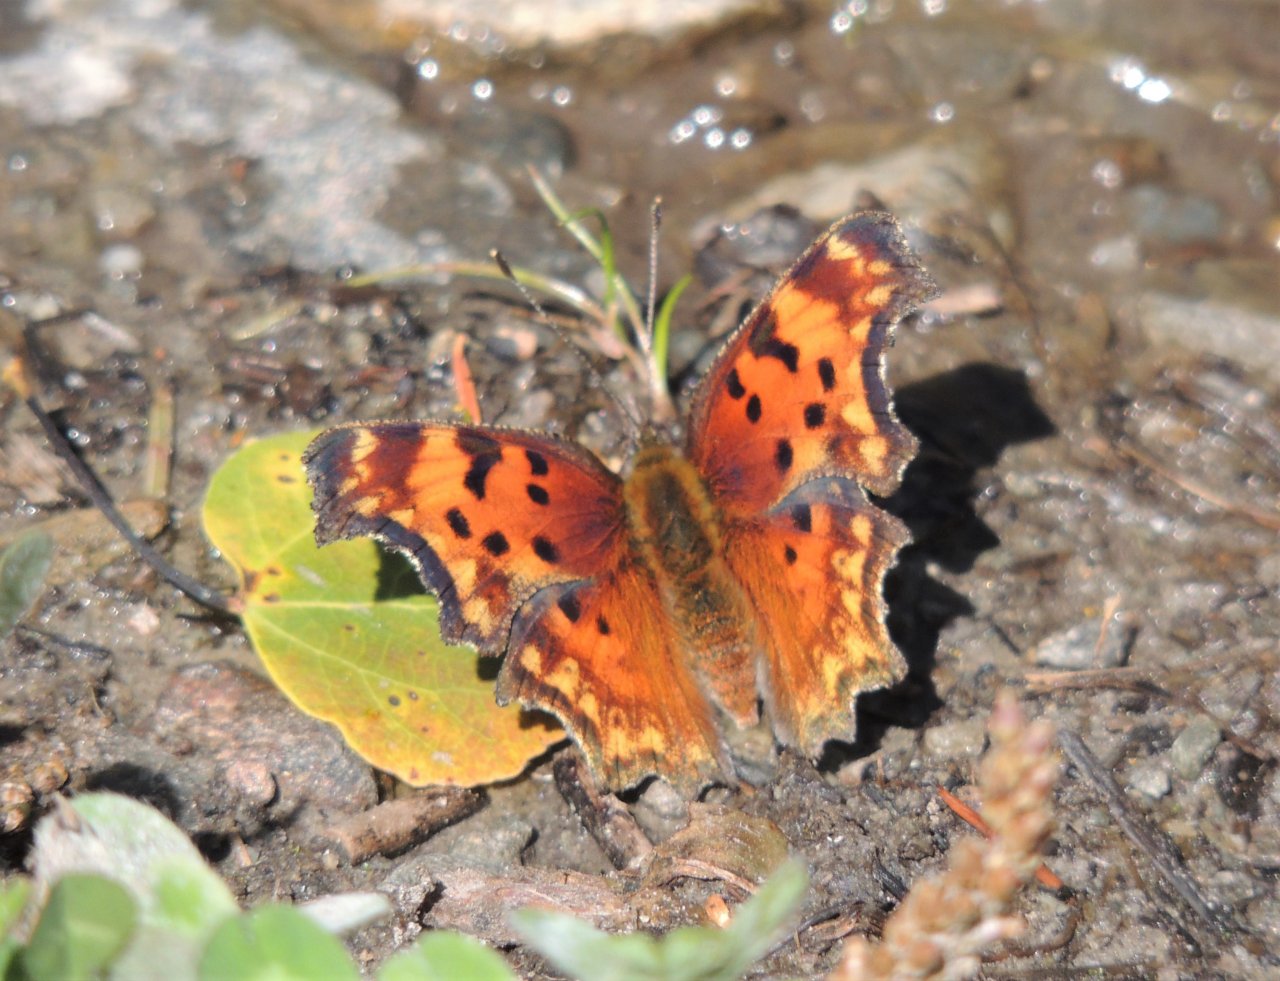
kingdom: Animalia
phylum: Arthropoda
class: Insecta
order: Lepidoptera
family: Nymphalidae
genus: Polygonia
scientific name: Polygonia gracilis
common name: Hoary Comma
